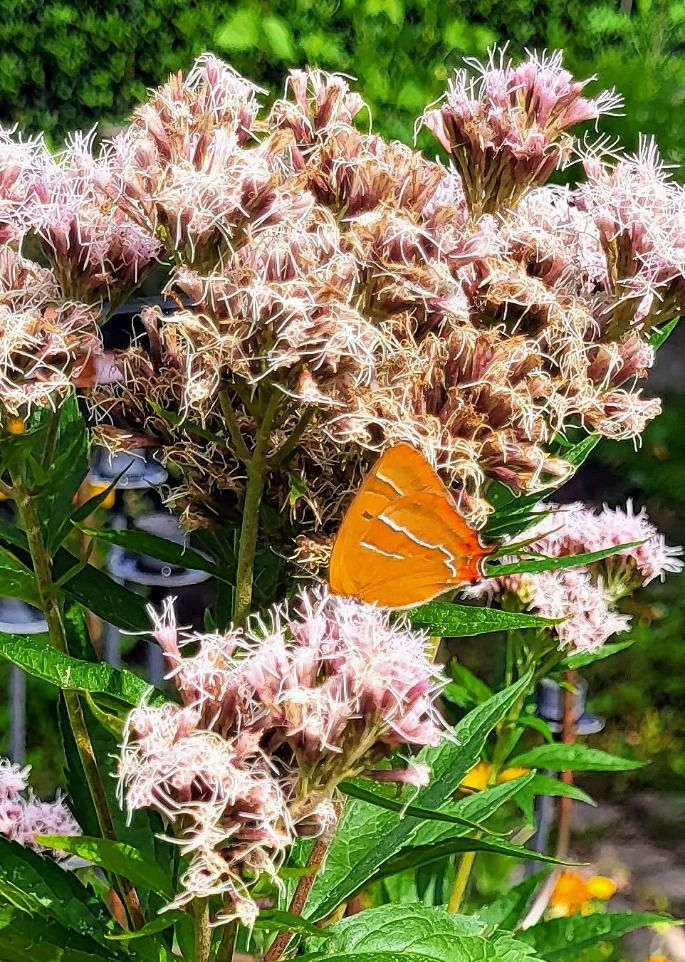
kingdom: Animalia
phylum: Arthropoda
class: Insecta
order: Lepidoptera
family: Lycaenidae
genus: Thecla
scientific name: Thecla betulae
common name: Guldhale
